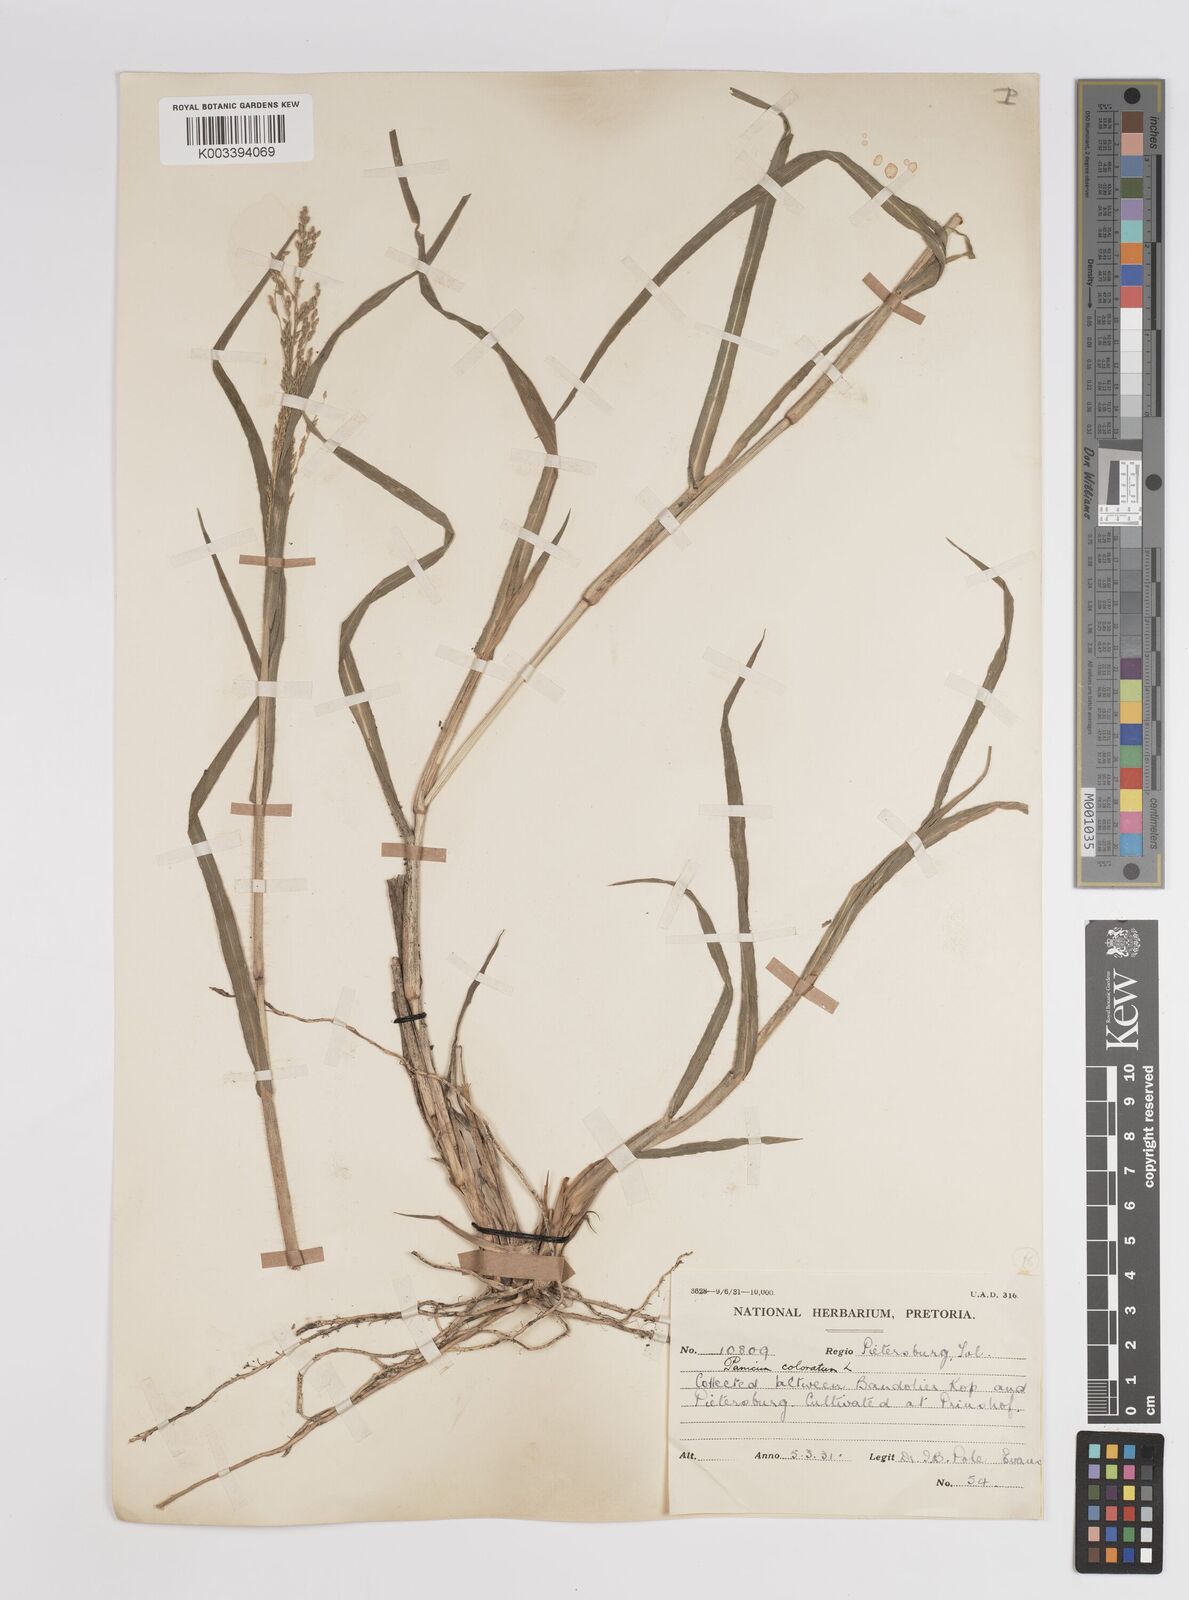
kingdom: Plantae
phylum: Tracheophyta
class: Liliopsida
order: Poales
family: Poaceae
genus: Panicum
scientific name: Panicum coloratum
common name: Kleingrass
